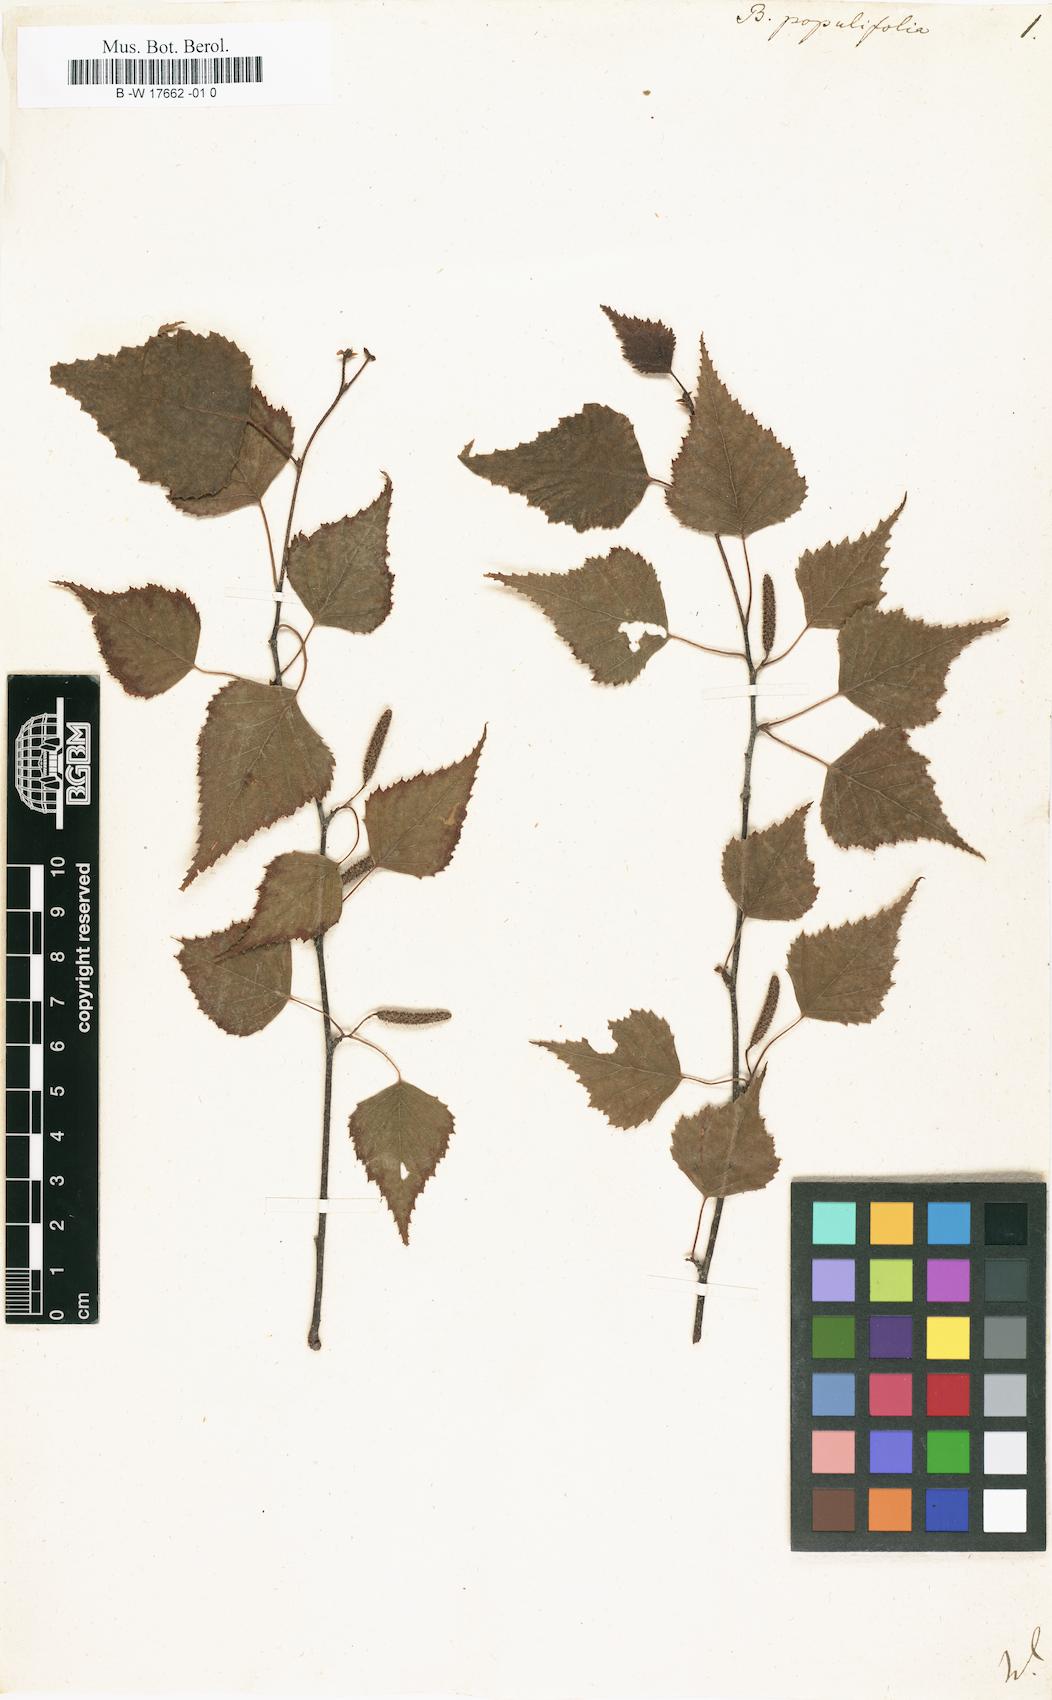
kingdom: Plantae
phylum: Tracheophyta
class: Magnoliopsida
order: Fagales
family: Betulaceae
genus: Betula
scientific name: Betula pubescens
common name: Downy birch
